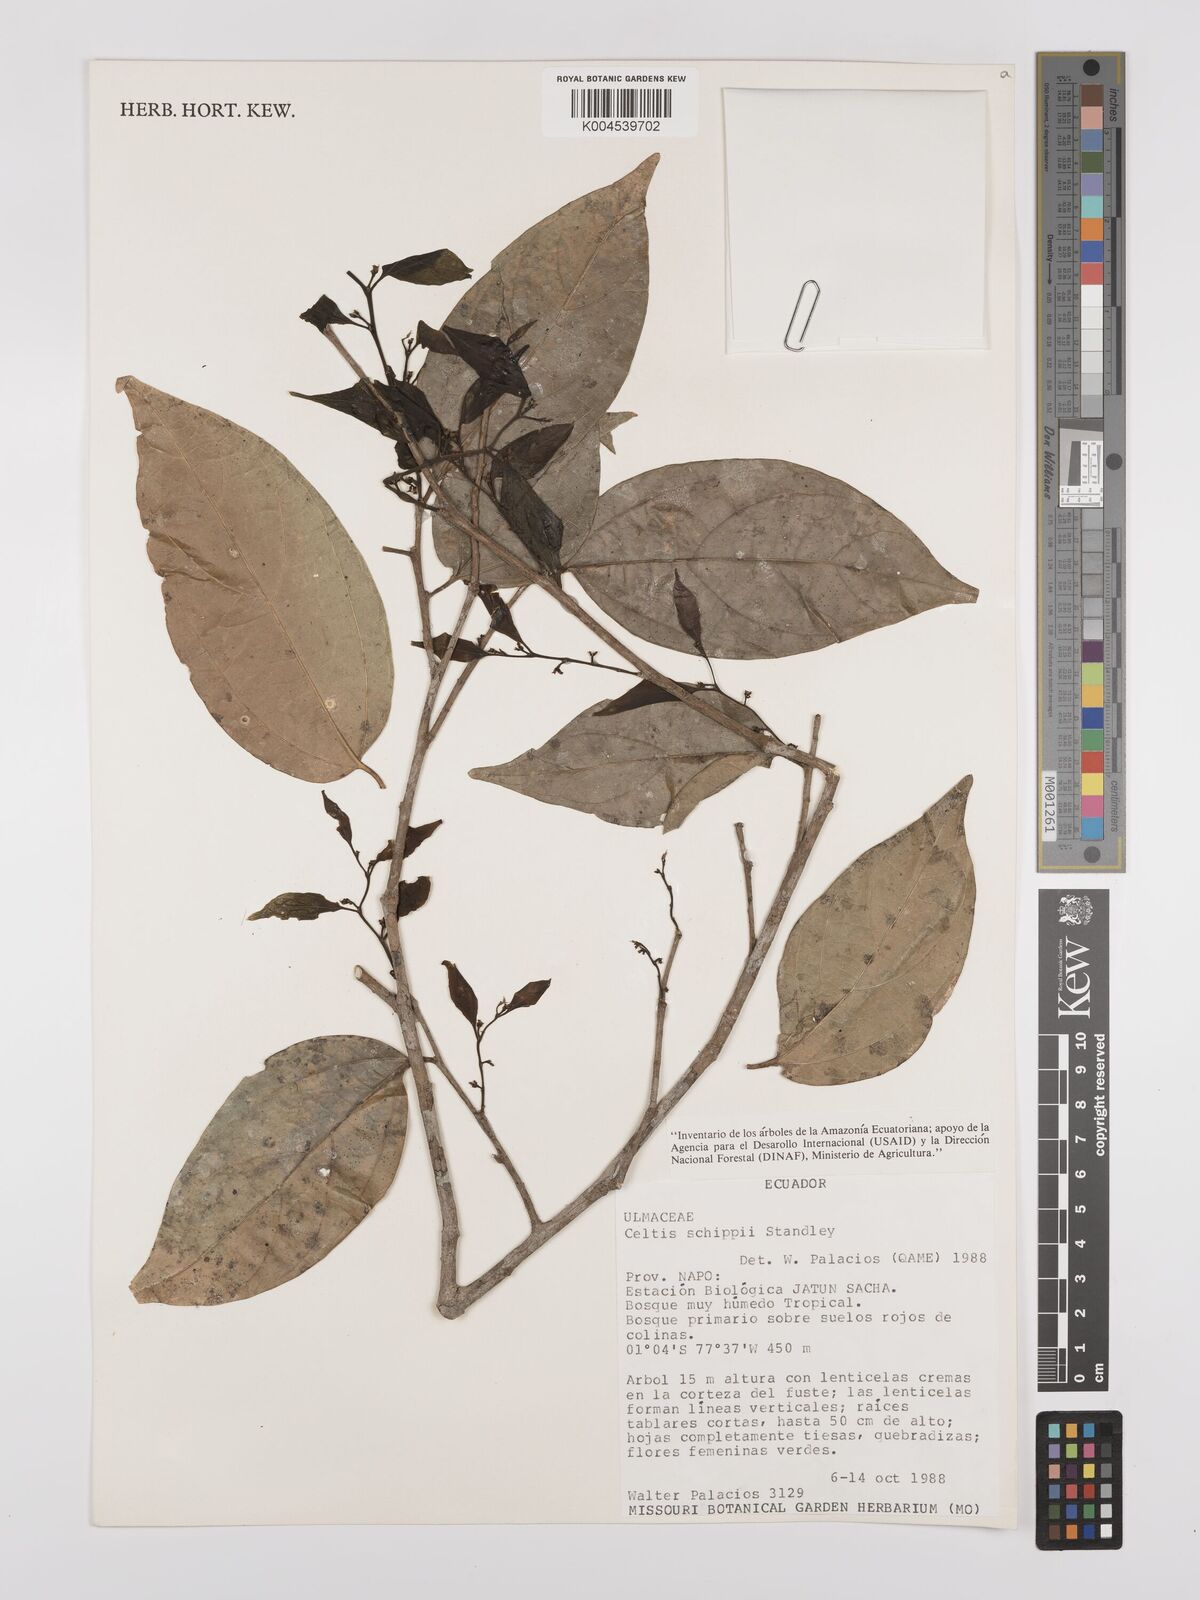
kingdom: Plantae
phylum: Tracheophyta
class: Magnoliopsida
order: Rosales
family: Cannabaceae
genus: Celtis
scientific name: Celtis schippii
